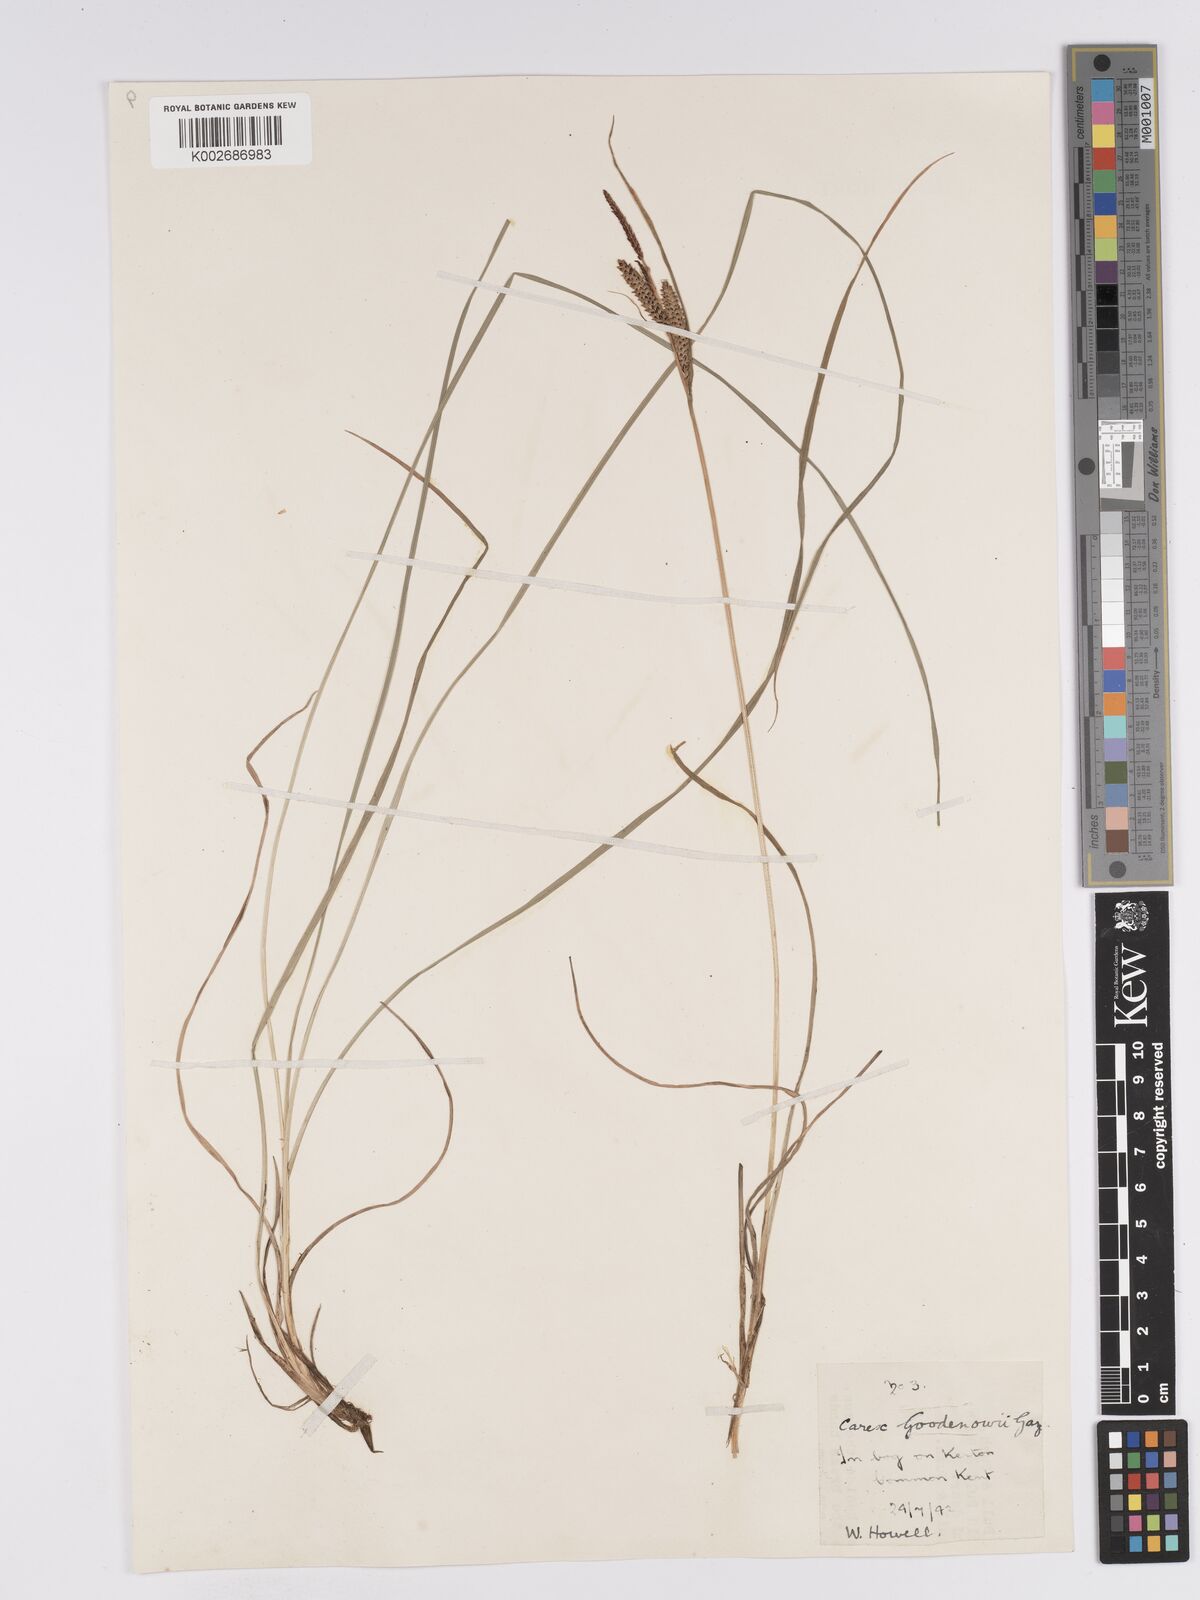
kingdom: Plantae
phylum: Tracheophyta
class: Liliopsida
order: Poales
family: Cyperaceae
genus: Carex
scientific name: Carex nigra
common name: Common sedge
